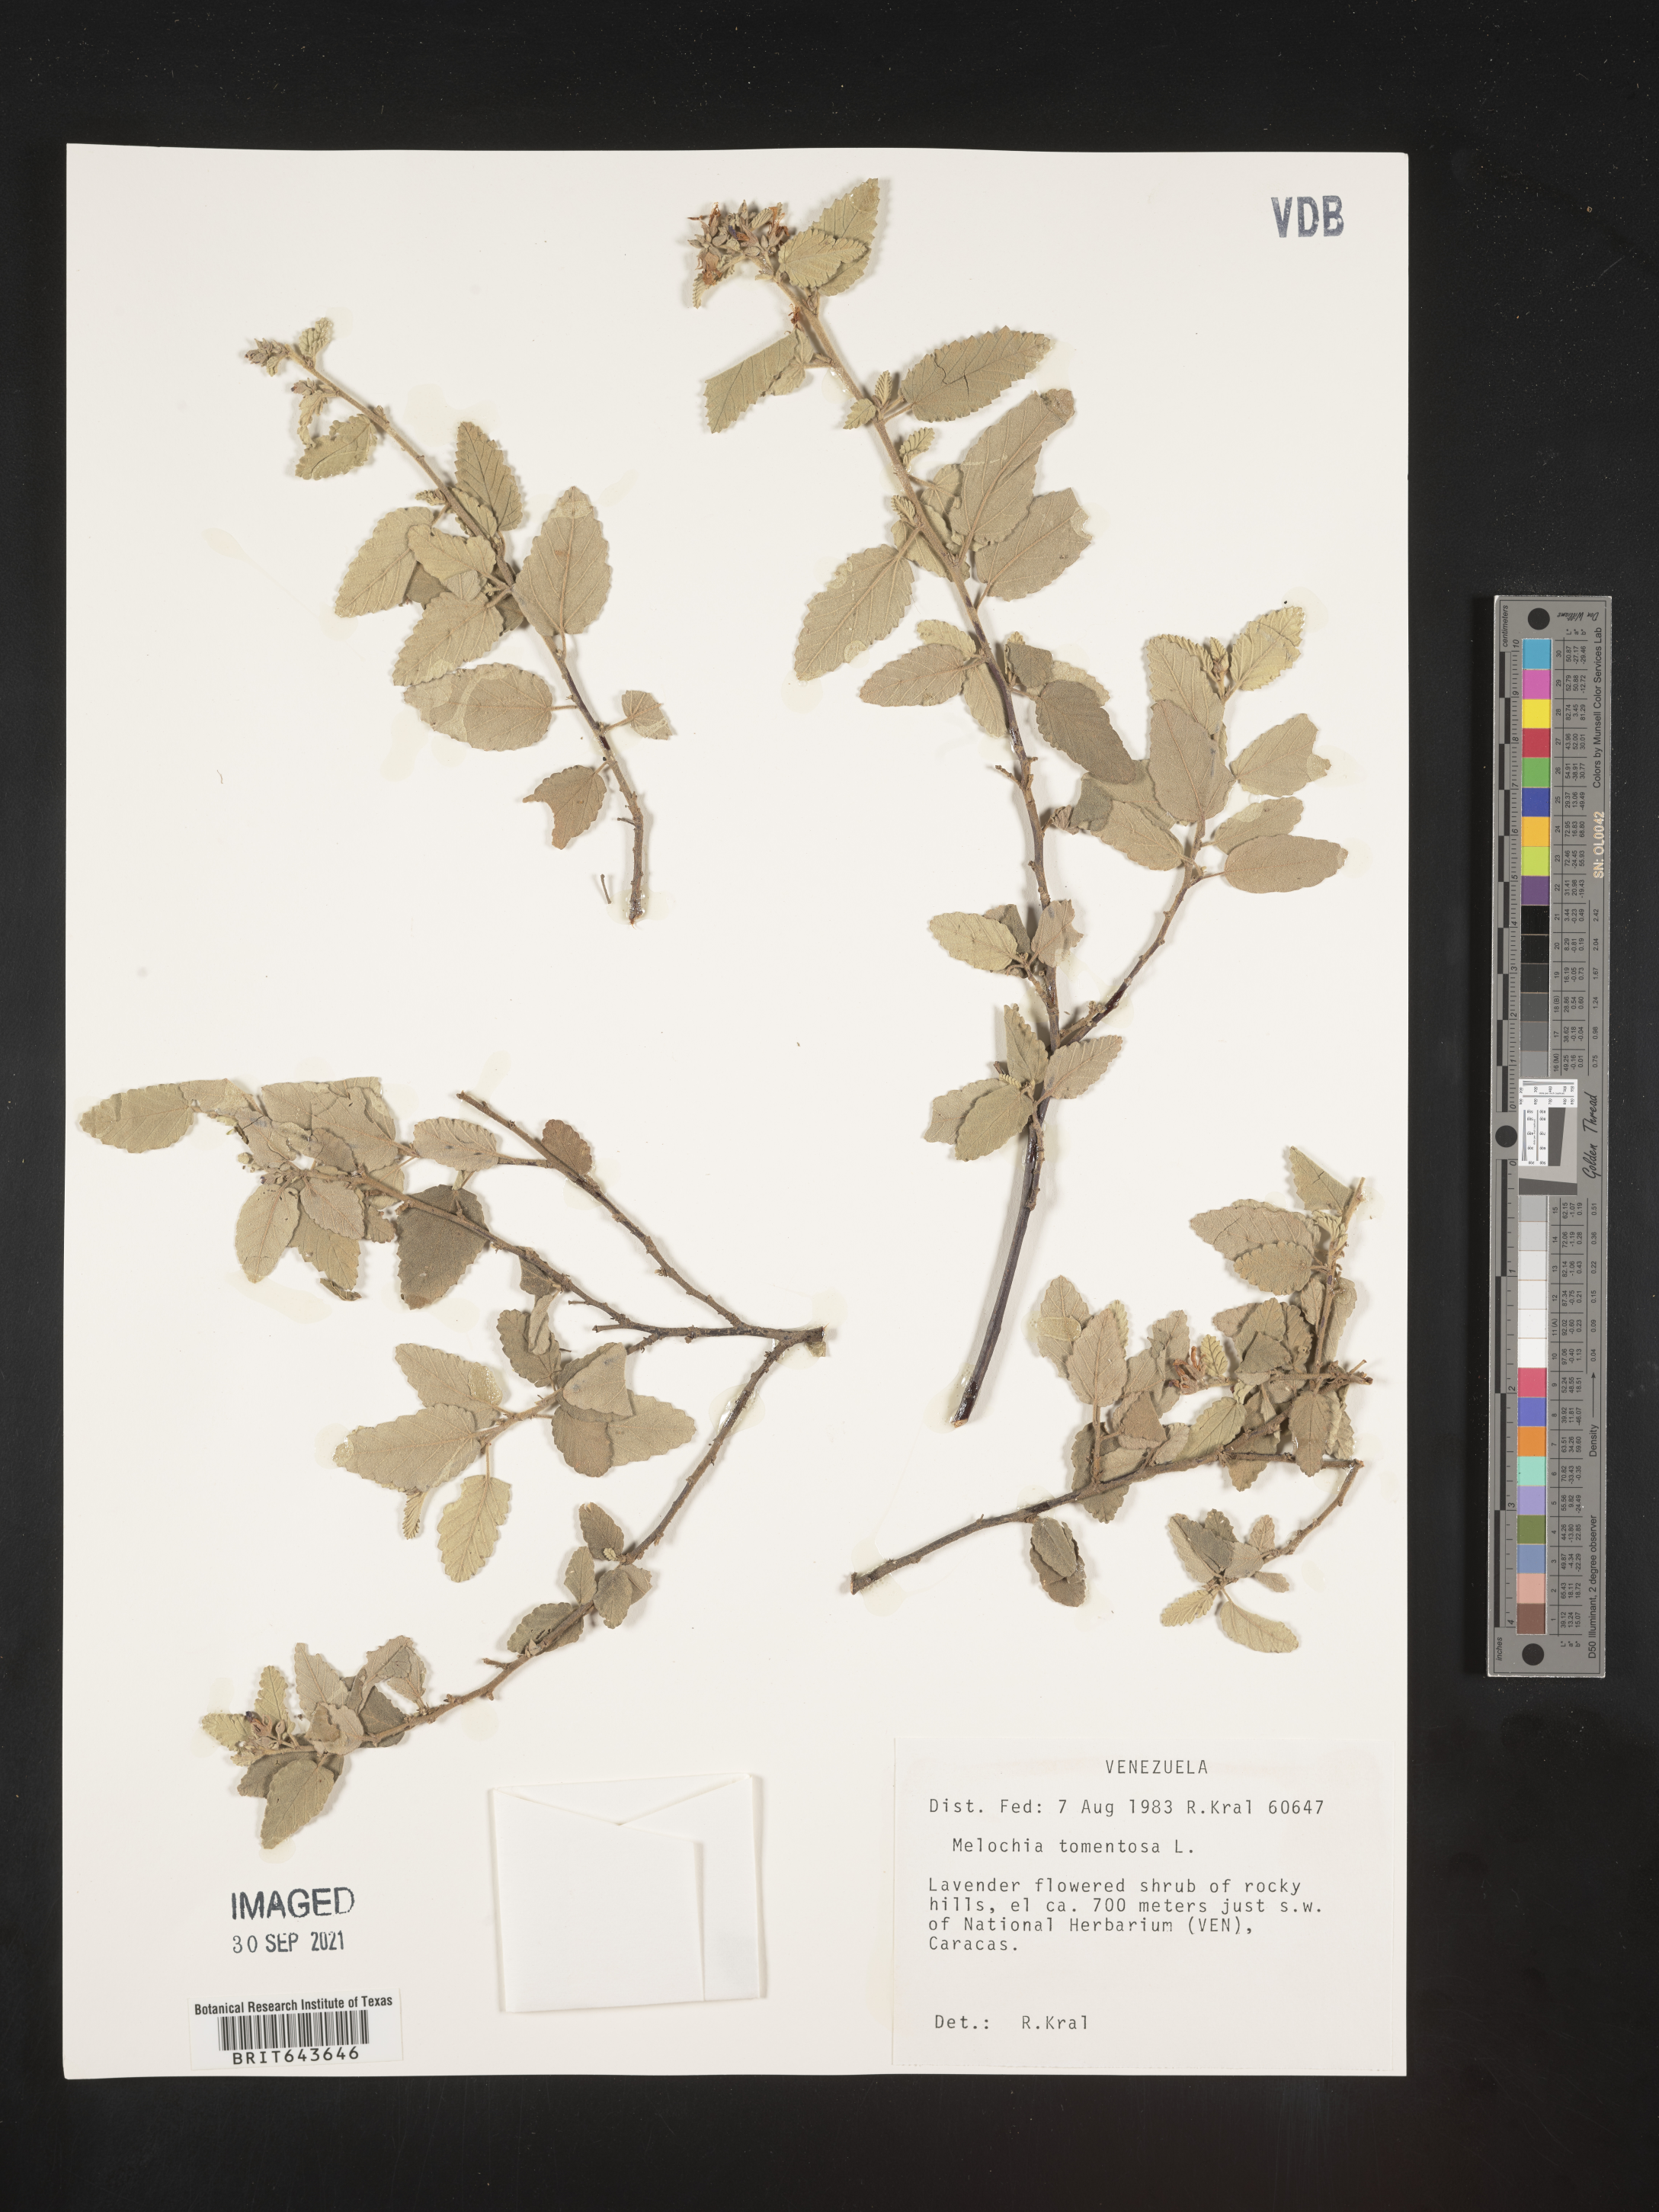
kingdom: Plantae
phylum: Tracheophyta
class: Magnoliopsida
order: Malvales
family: Malvaceae
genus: Melochia
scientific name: Melochia
